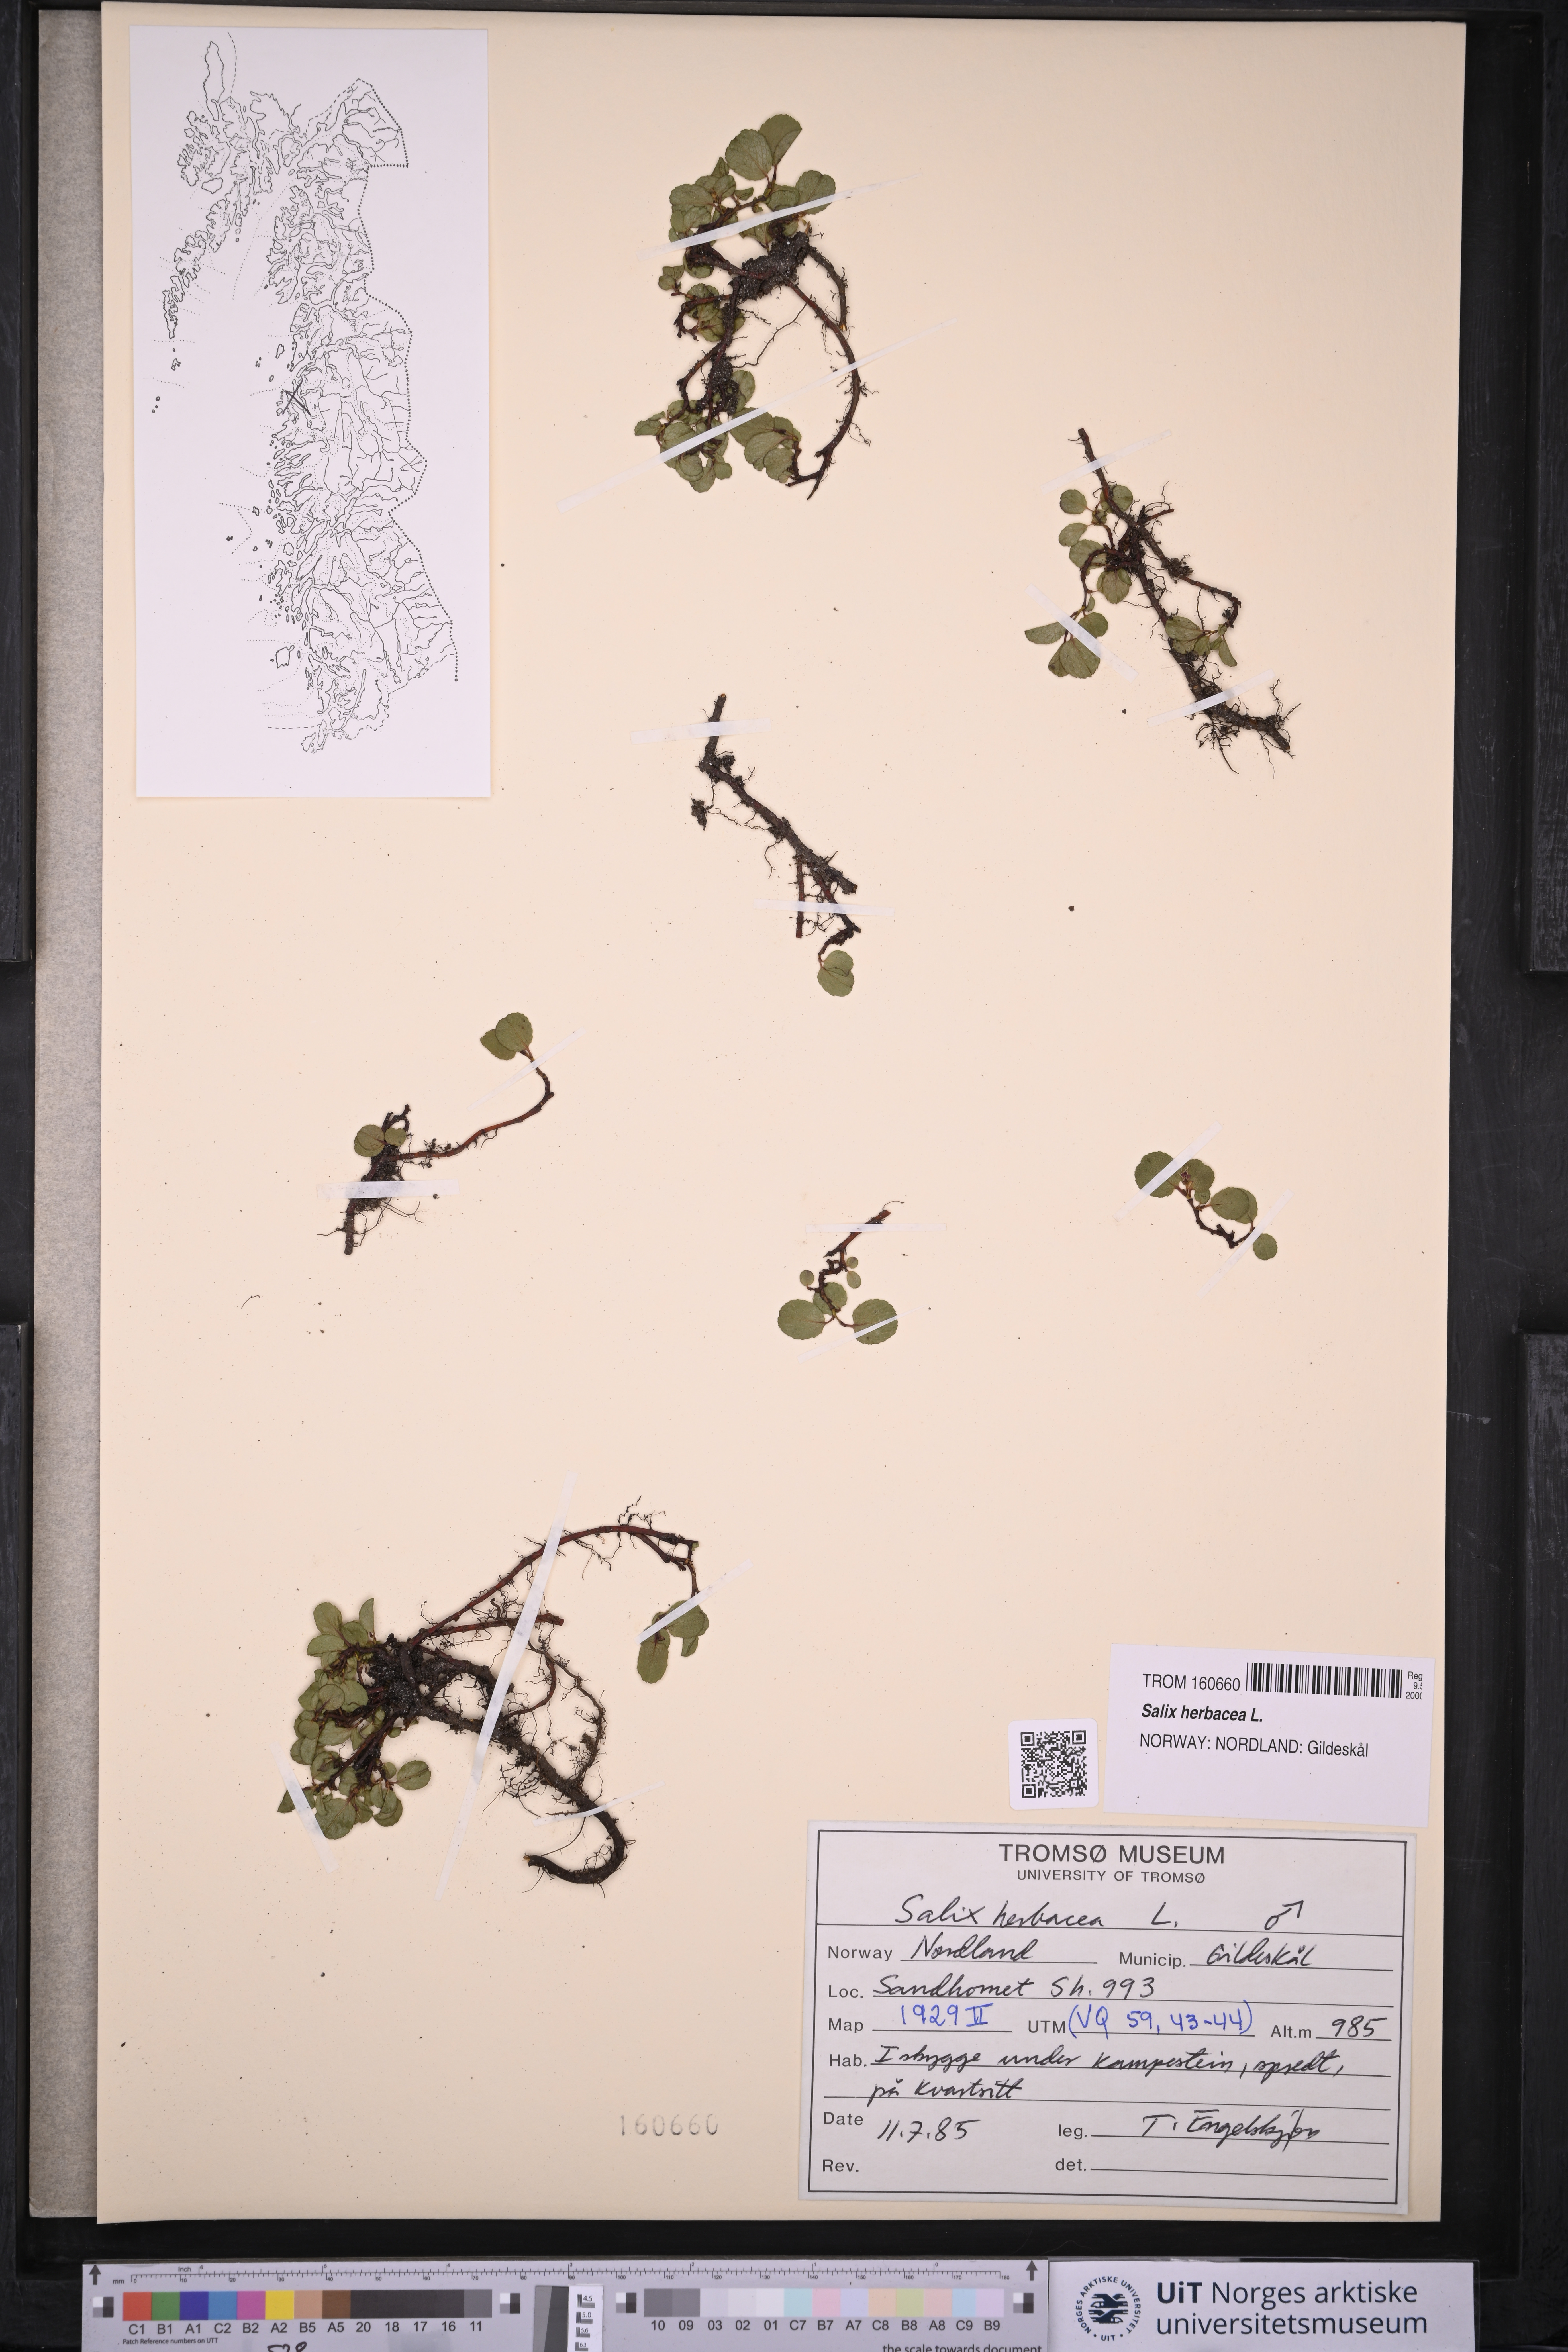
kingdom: Plantae
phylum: Tracheophyta
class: Magnoliopsida
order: Malpighiales
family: Salicaceae
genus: Salix
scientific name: Salix herbacea
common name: Dwarf willow
